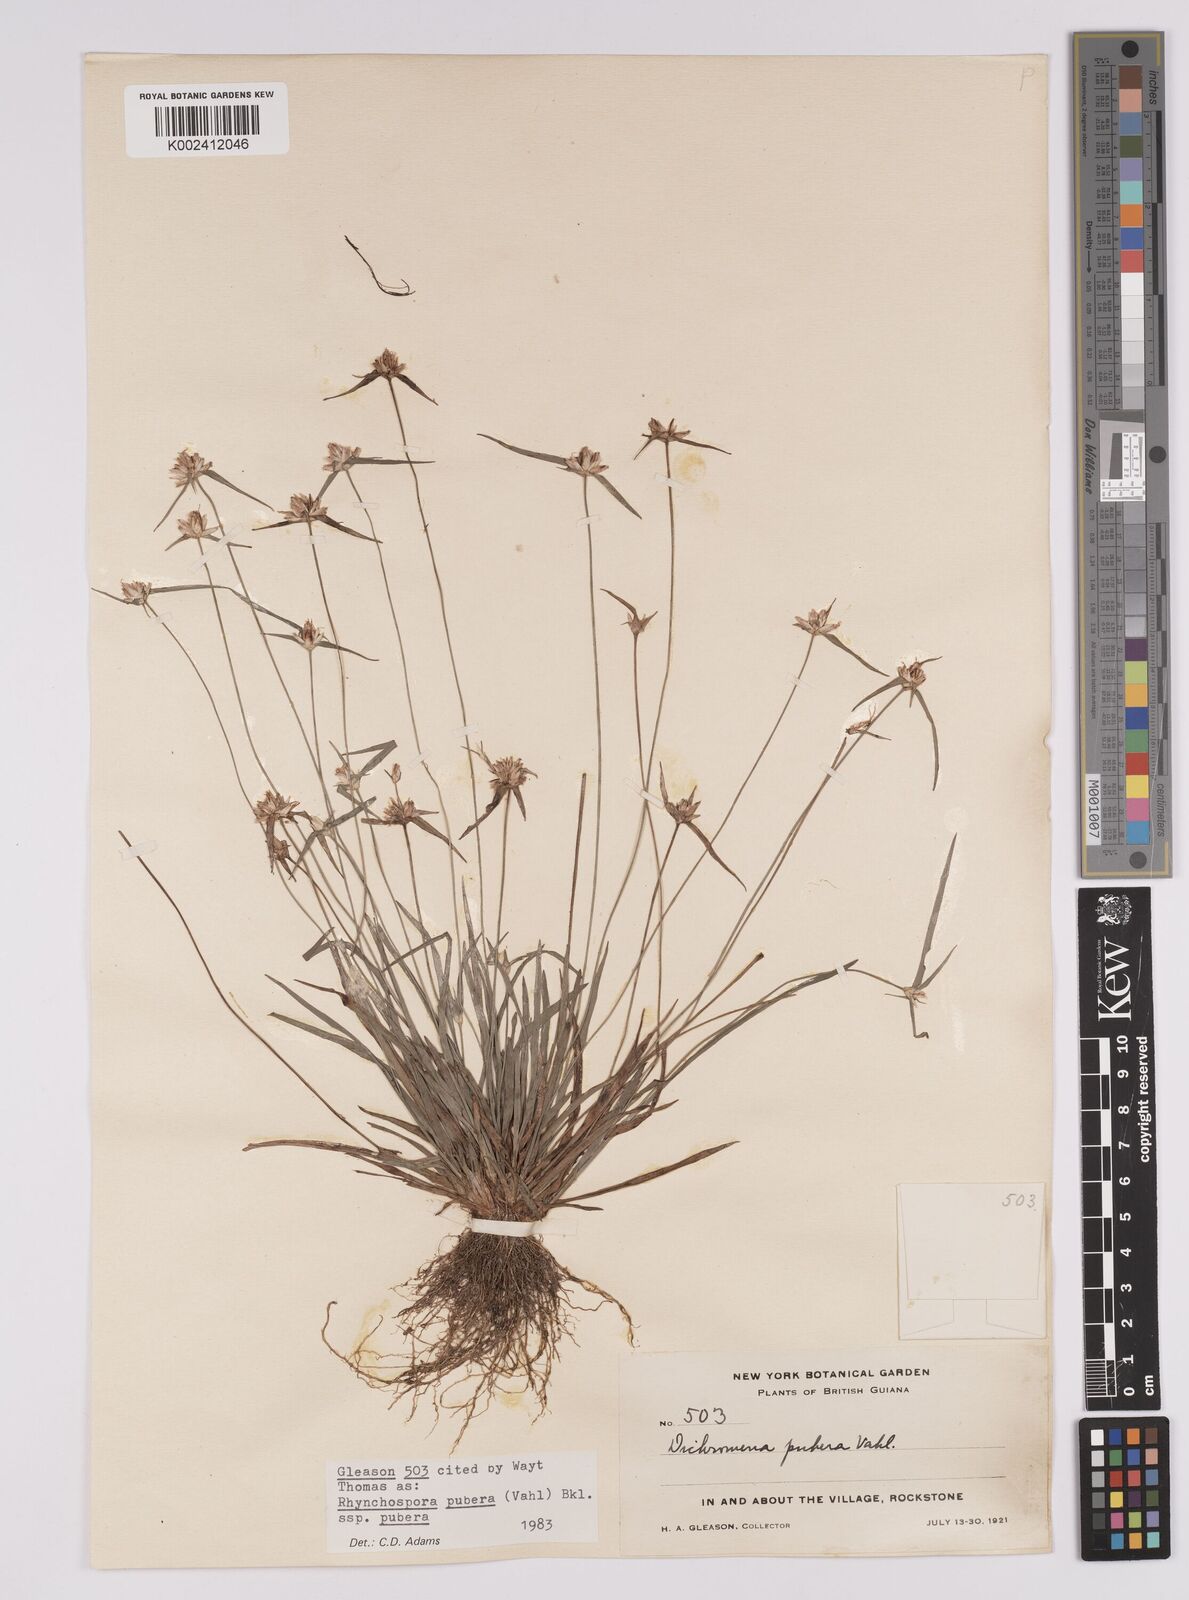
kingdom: Plantae
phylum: Tracheophyta
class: Liliopsida
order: Poales
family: Cyperaceae
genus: Rhynchospora
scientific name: Rhynchospora pubera
